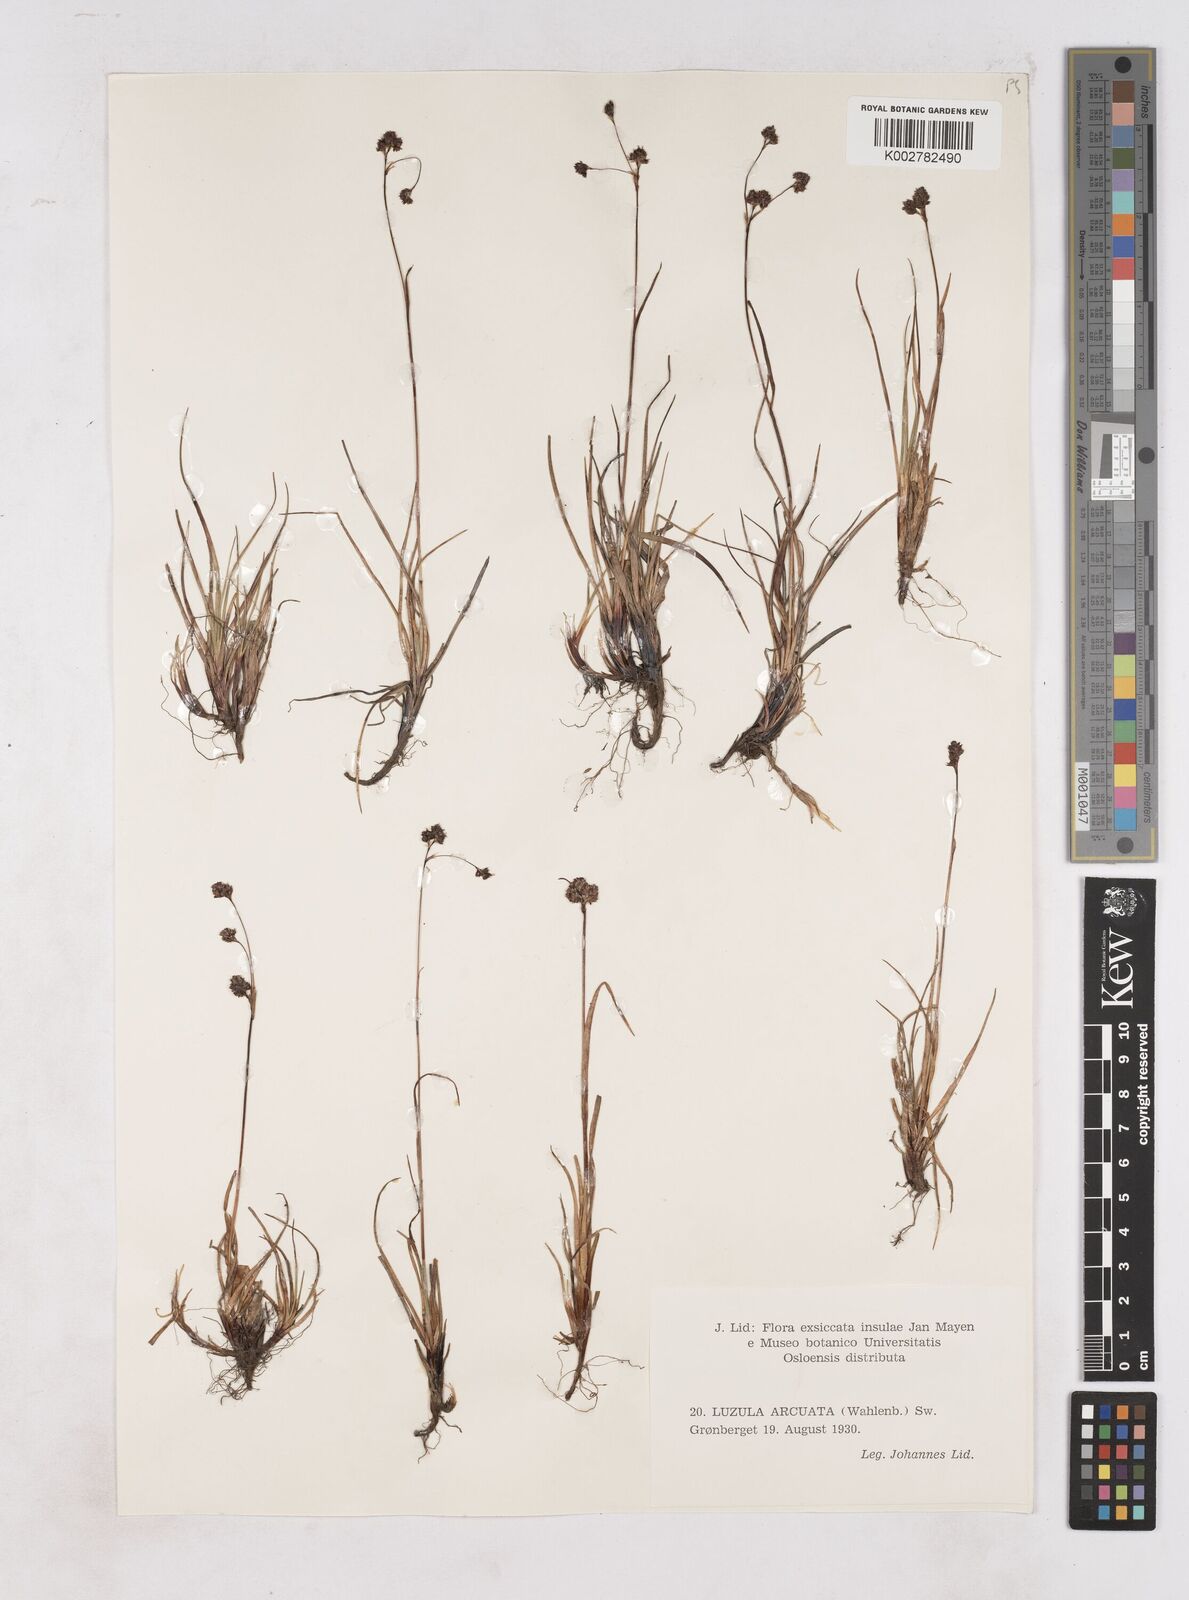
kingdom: Plantae
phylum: Tracheophyta
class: Liliopsida
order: Poales
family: Juncaceae
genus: Luzula
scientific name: Luzula arcuata
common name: Curved wood-rush
